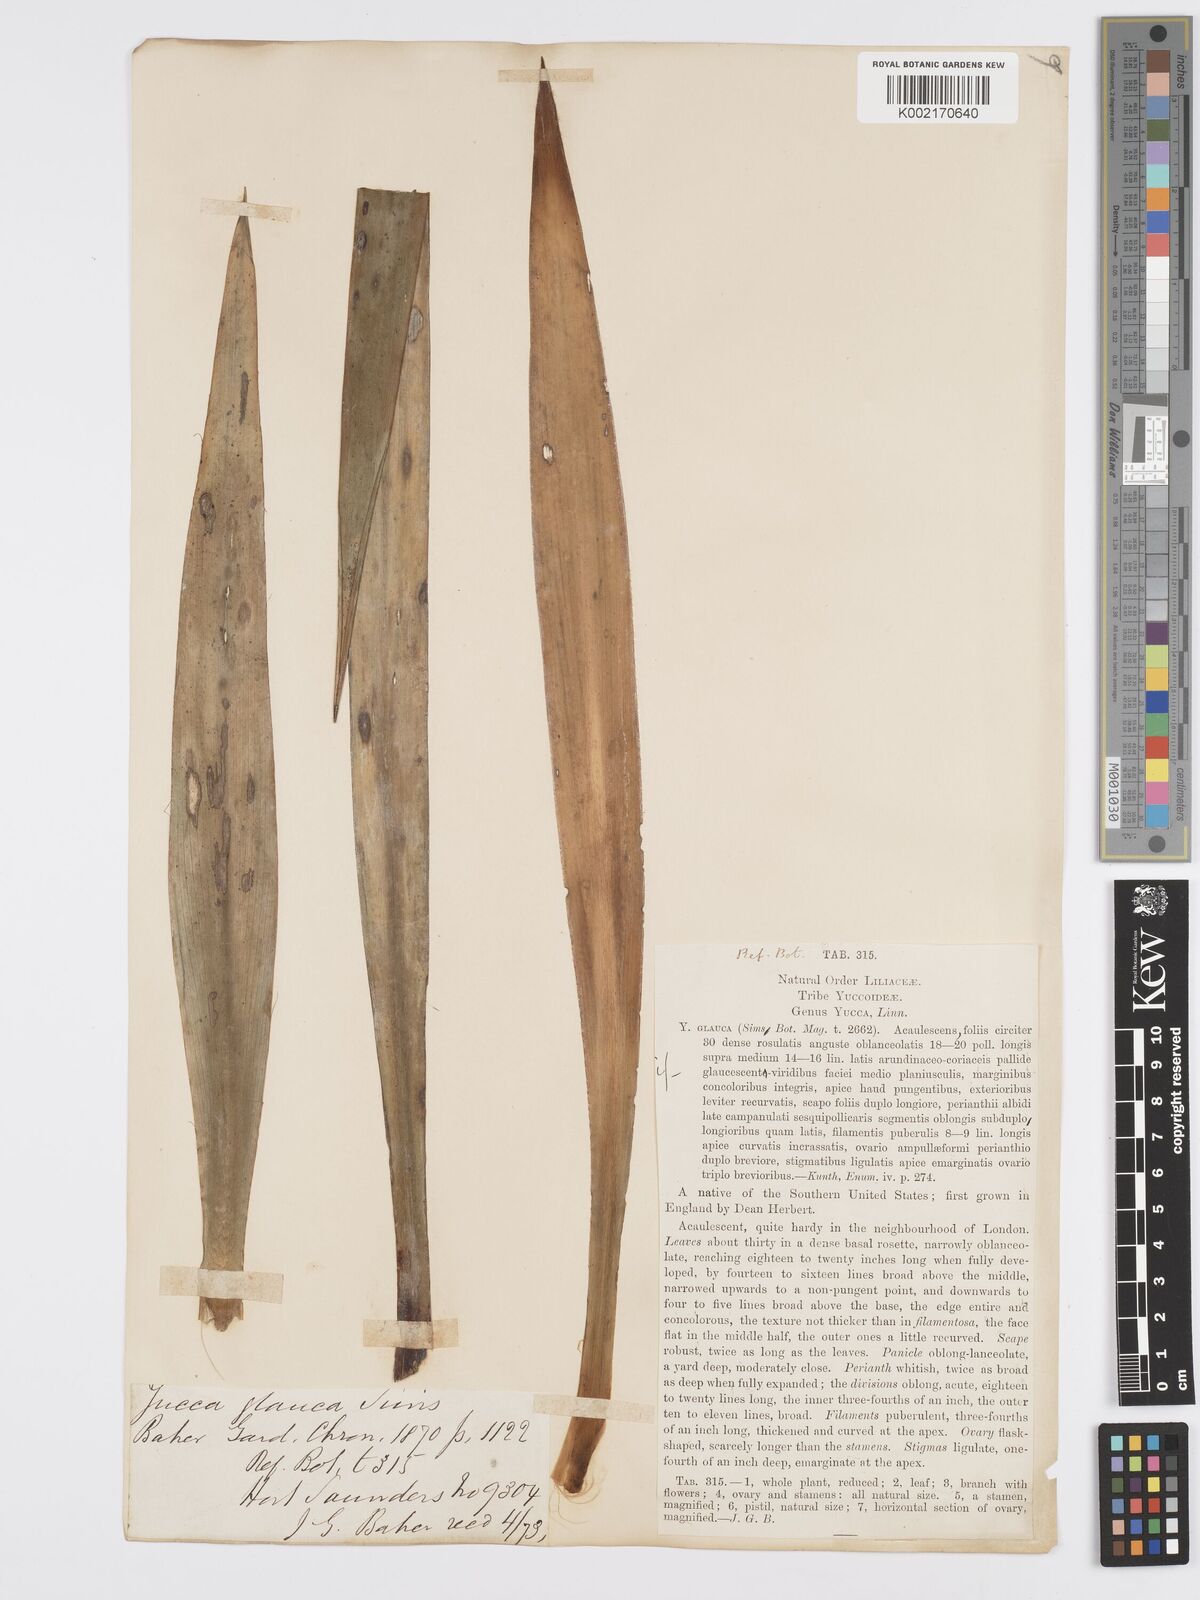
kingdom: Plantae
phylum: Tracheophyta
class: Liliopsida
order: Asparagales
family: Asparagaceae
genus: Yucca
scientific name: Yucca glauca
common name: Great plains yucca
